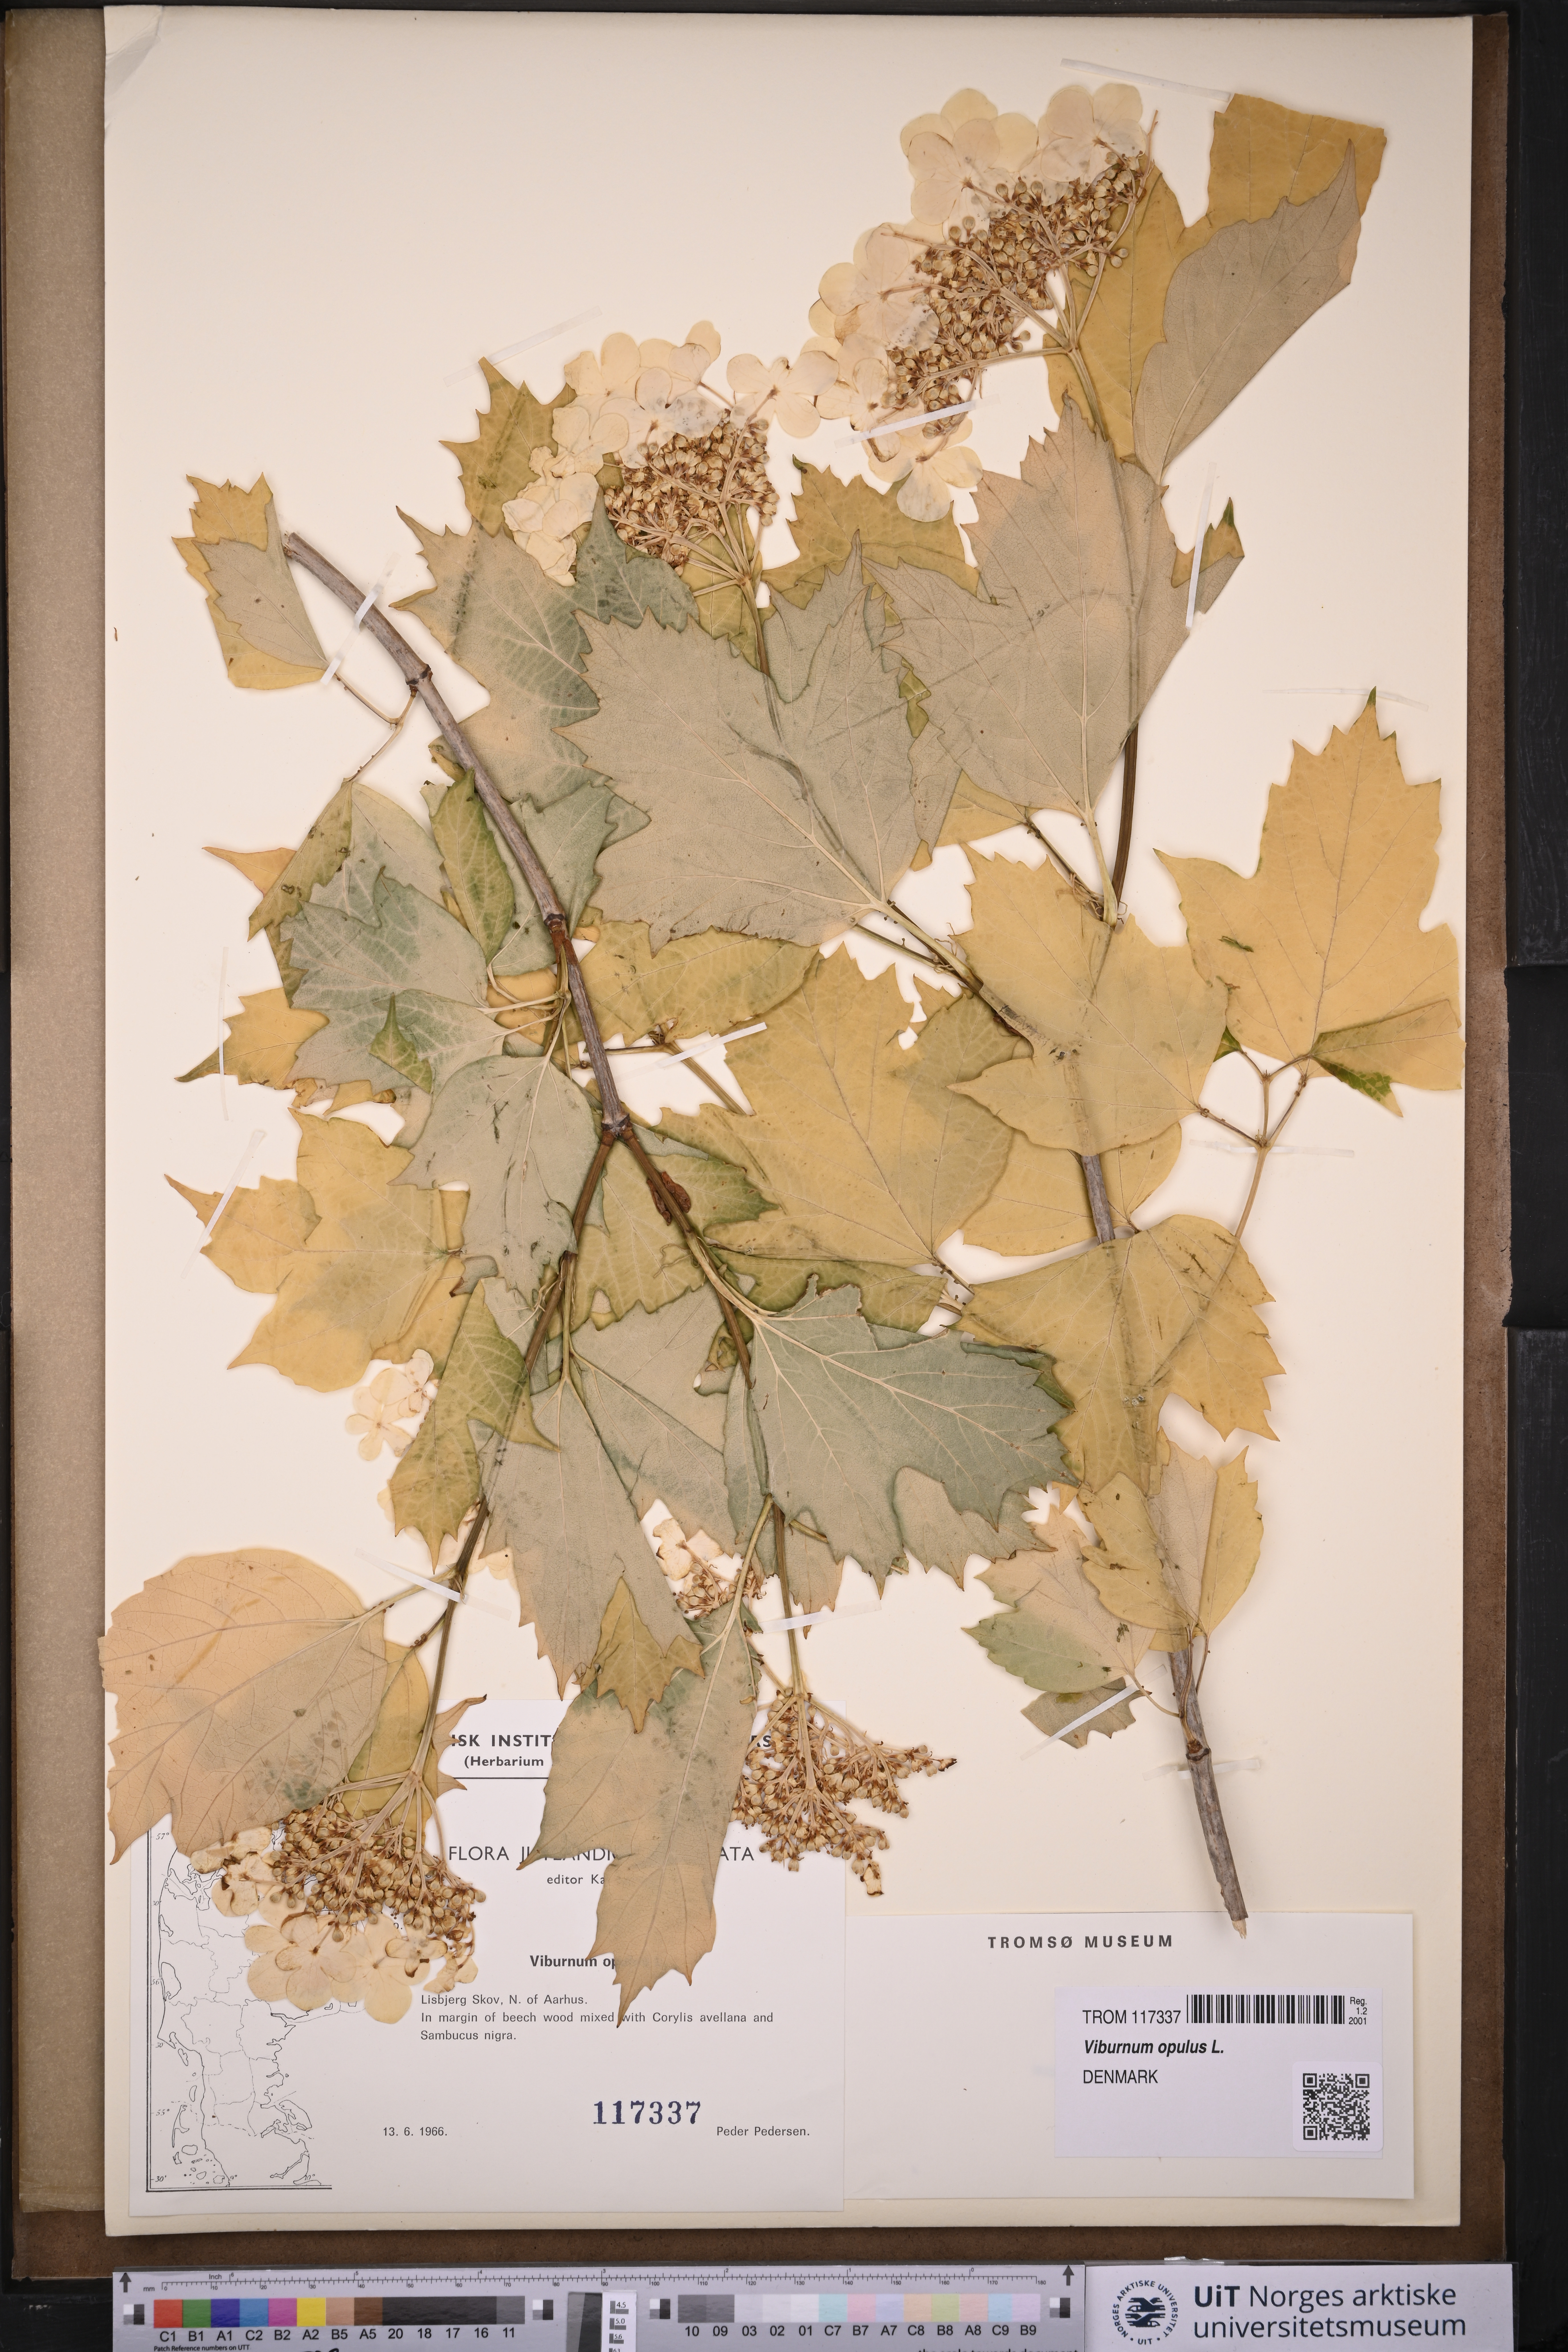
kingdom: Plantae
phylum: Tracheophyta
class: Magnoliopsida
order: Dipsacales
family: Viburnaceae
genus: Viburnum
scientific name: Viburnum opulus
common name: Guelder-rose
